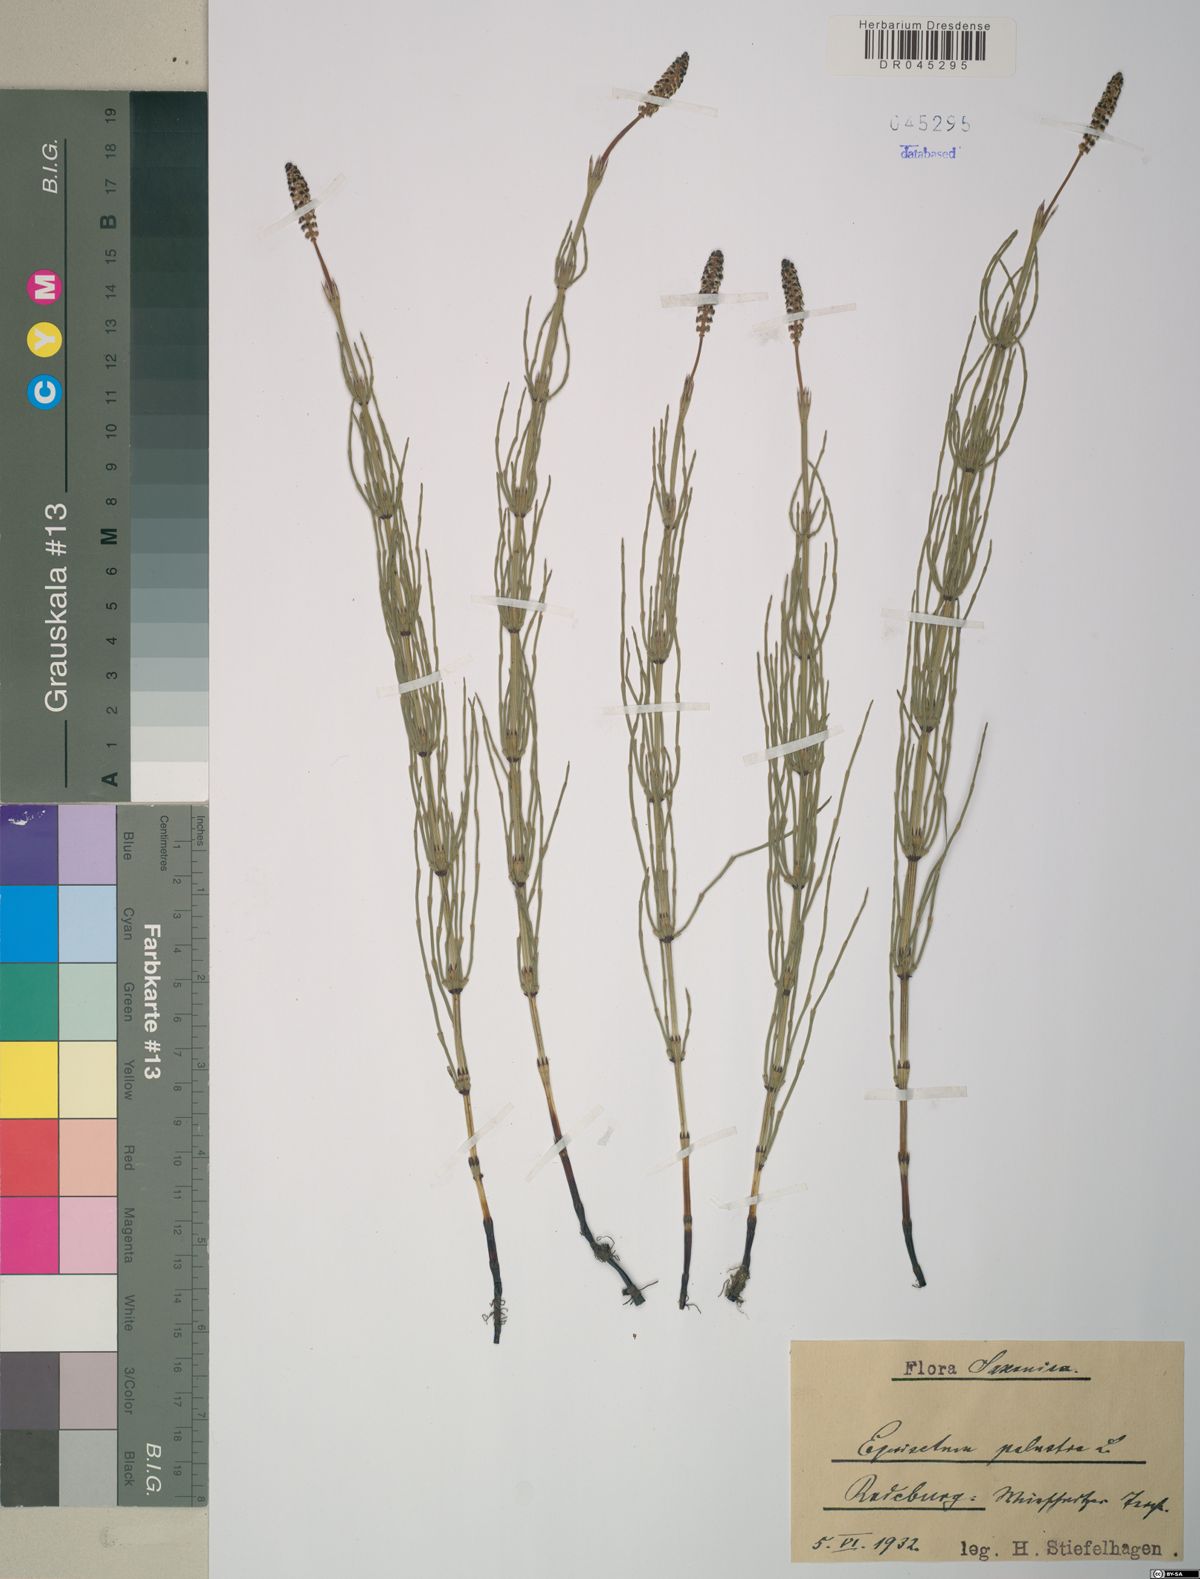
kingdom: Plantae
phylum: Tracheophyta
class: Polypodiopsida
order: Equisetales
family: Equisetaceae
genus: Equisetum
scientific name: Equisetum palustre
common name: Marsh horsetail
